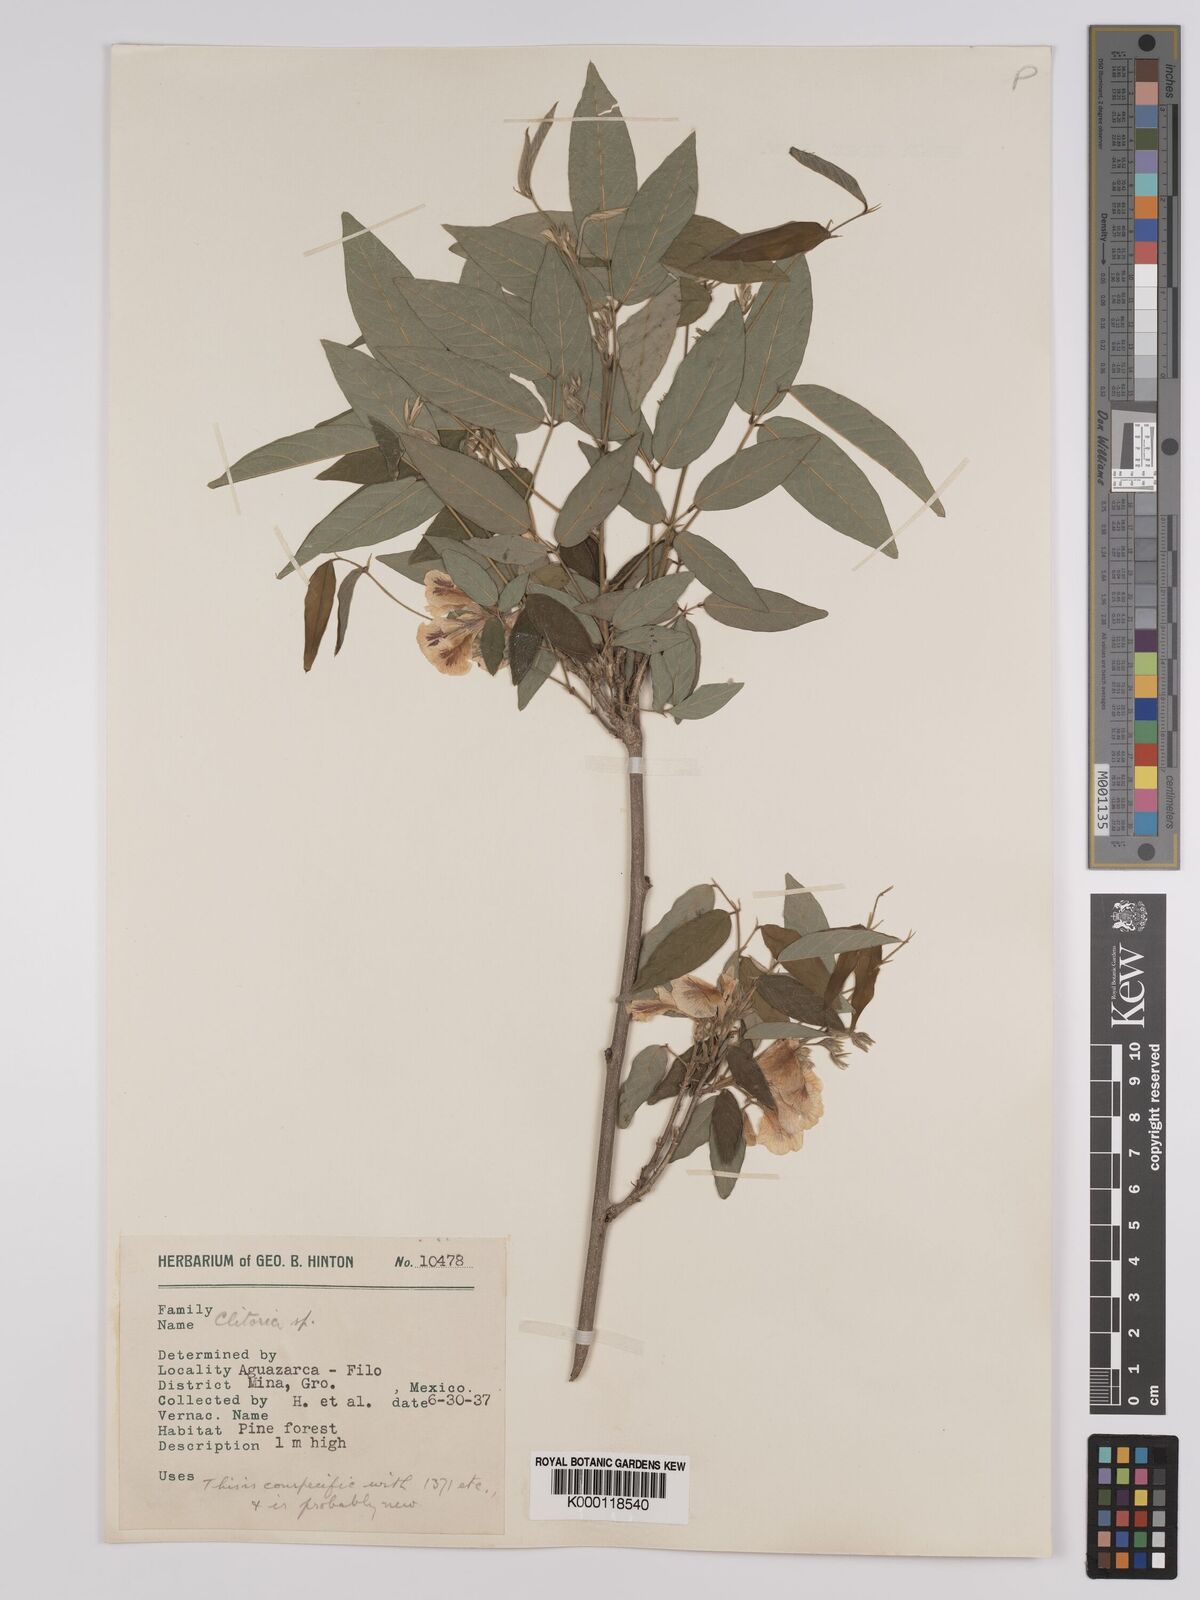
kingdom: Plantae
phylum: Tracheophyta
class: Magnoliopsida
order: Fabales
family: Fabaceae
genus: Clitoria
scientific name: Clitoria polystachya
